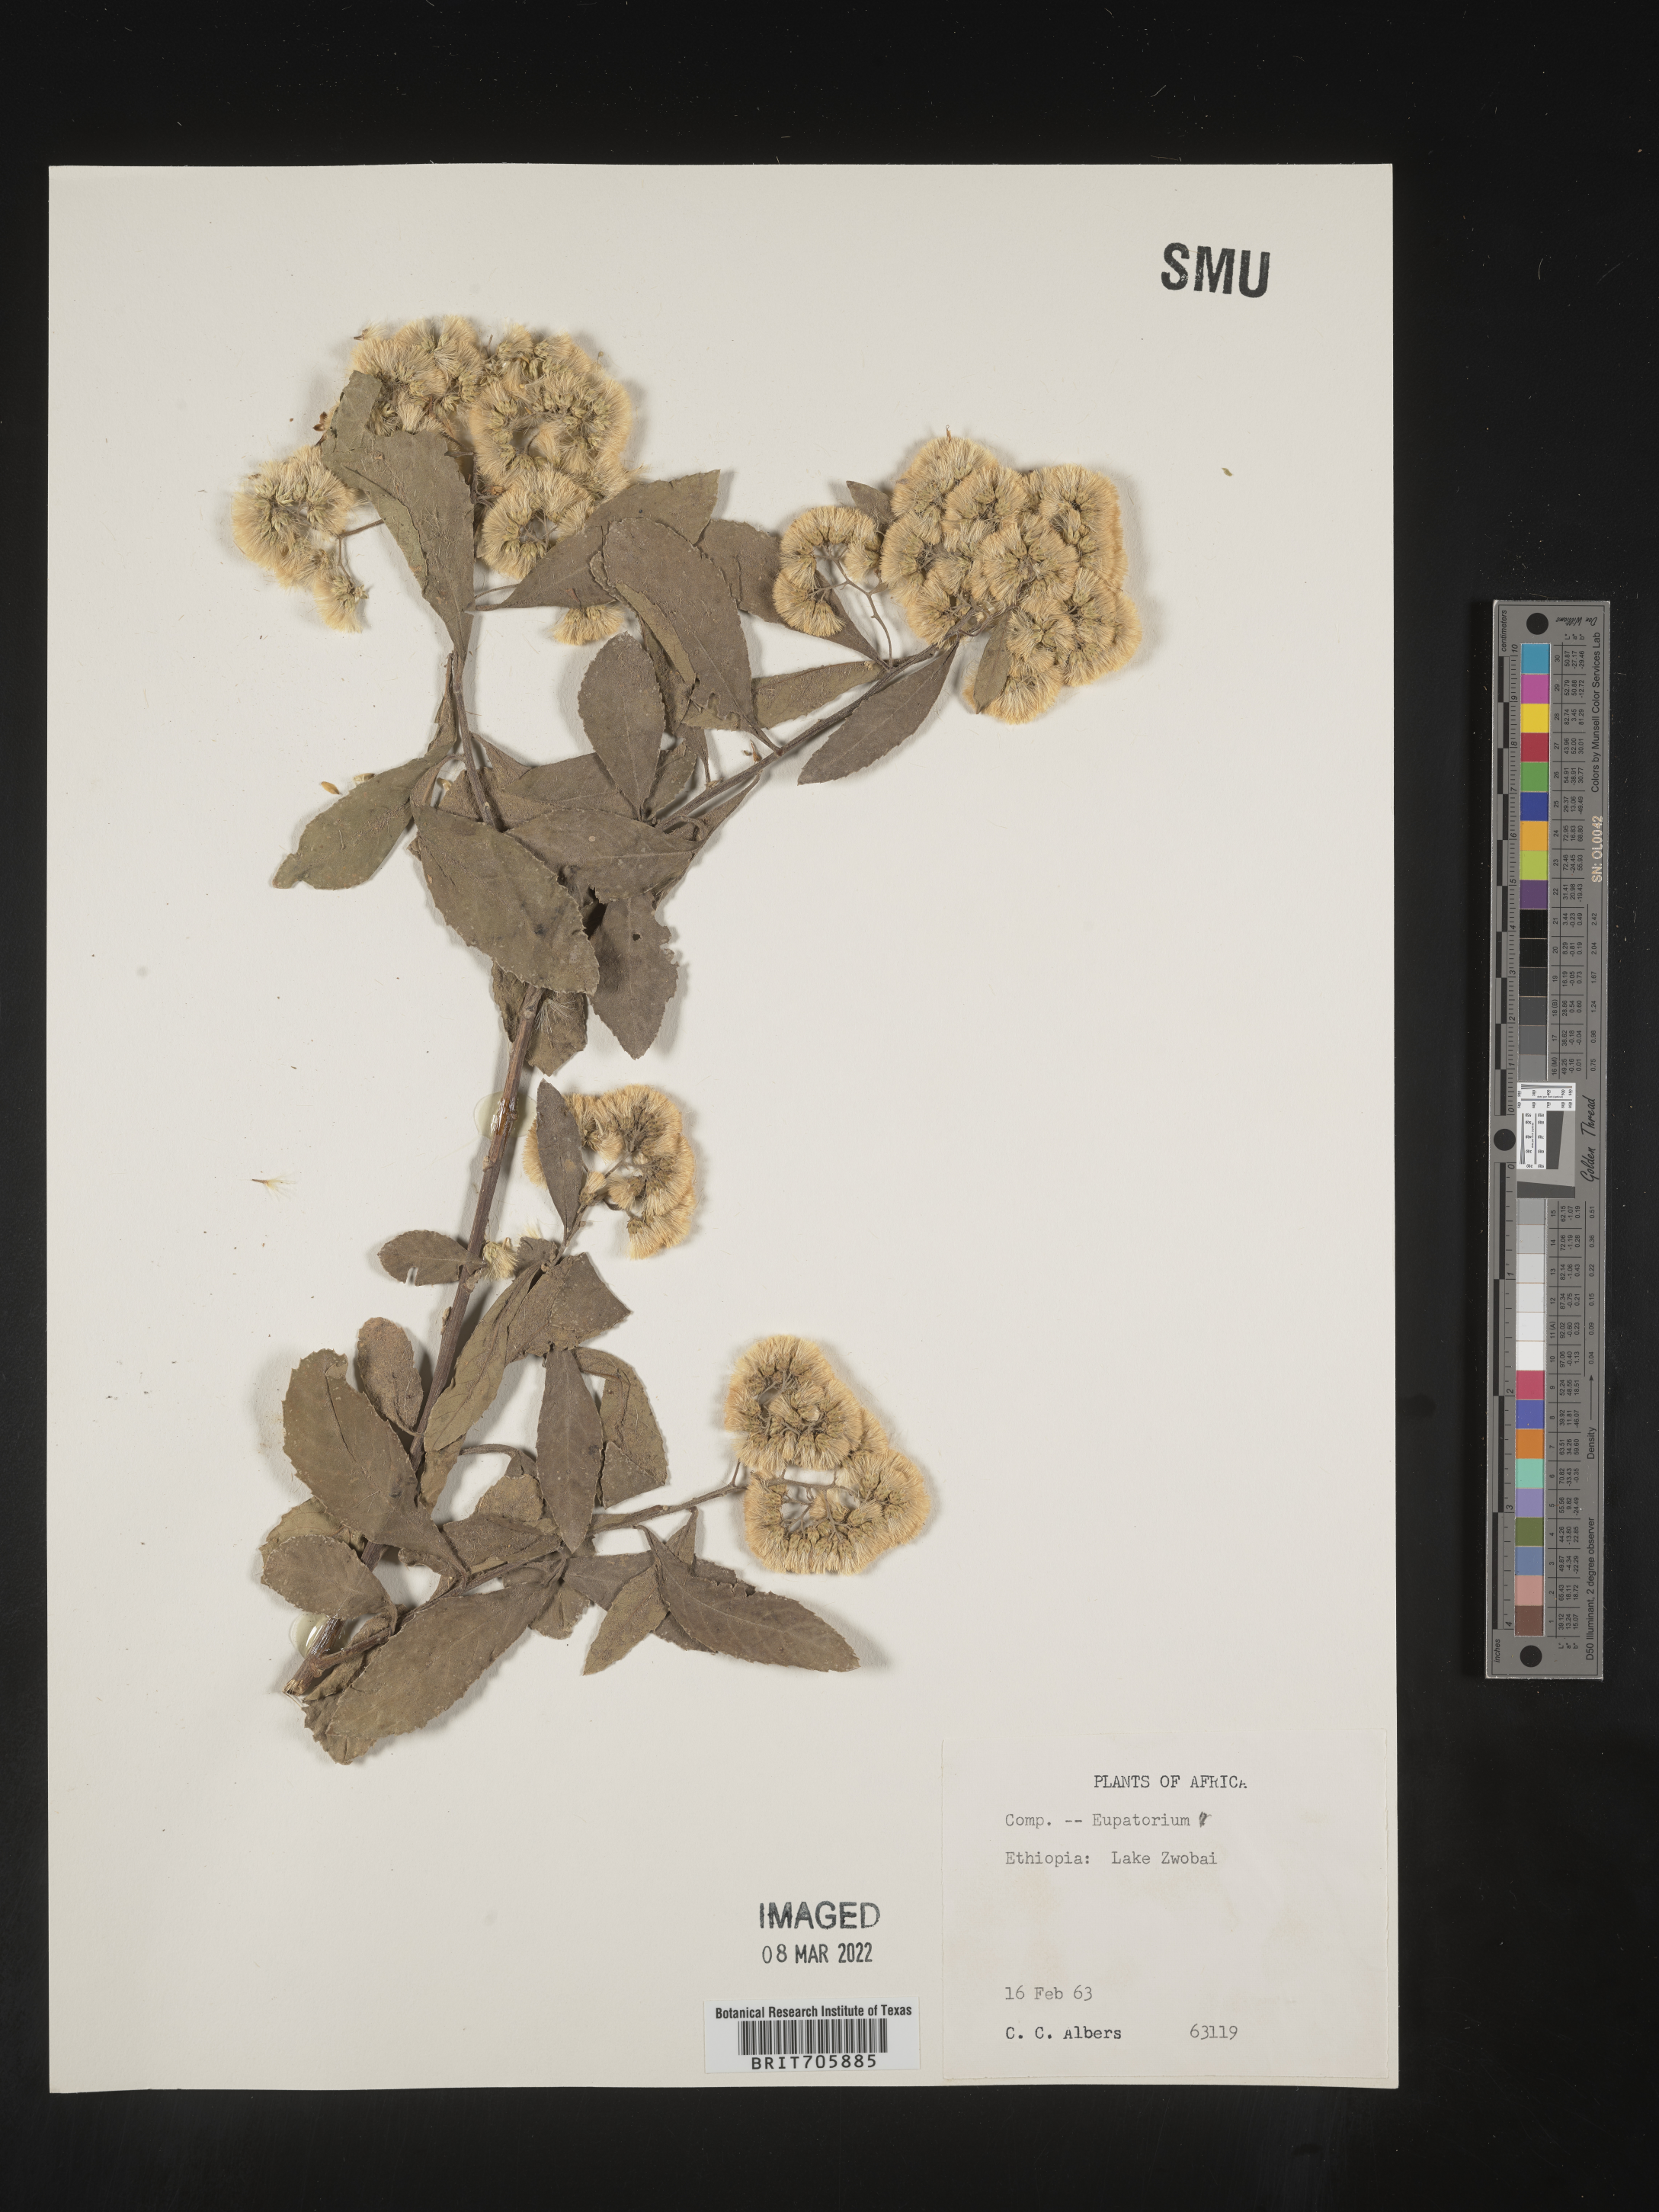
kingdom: Plantae
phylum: Tracheophyta
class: Magnoliopsida
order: Asterales
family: Asteraceae
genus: Vernonia
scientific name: Vernonia
